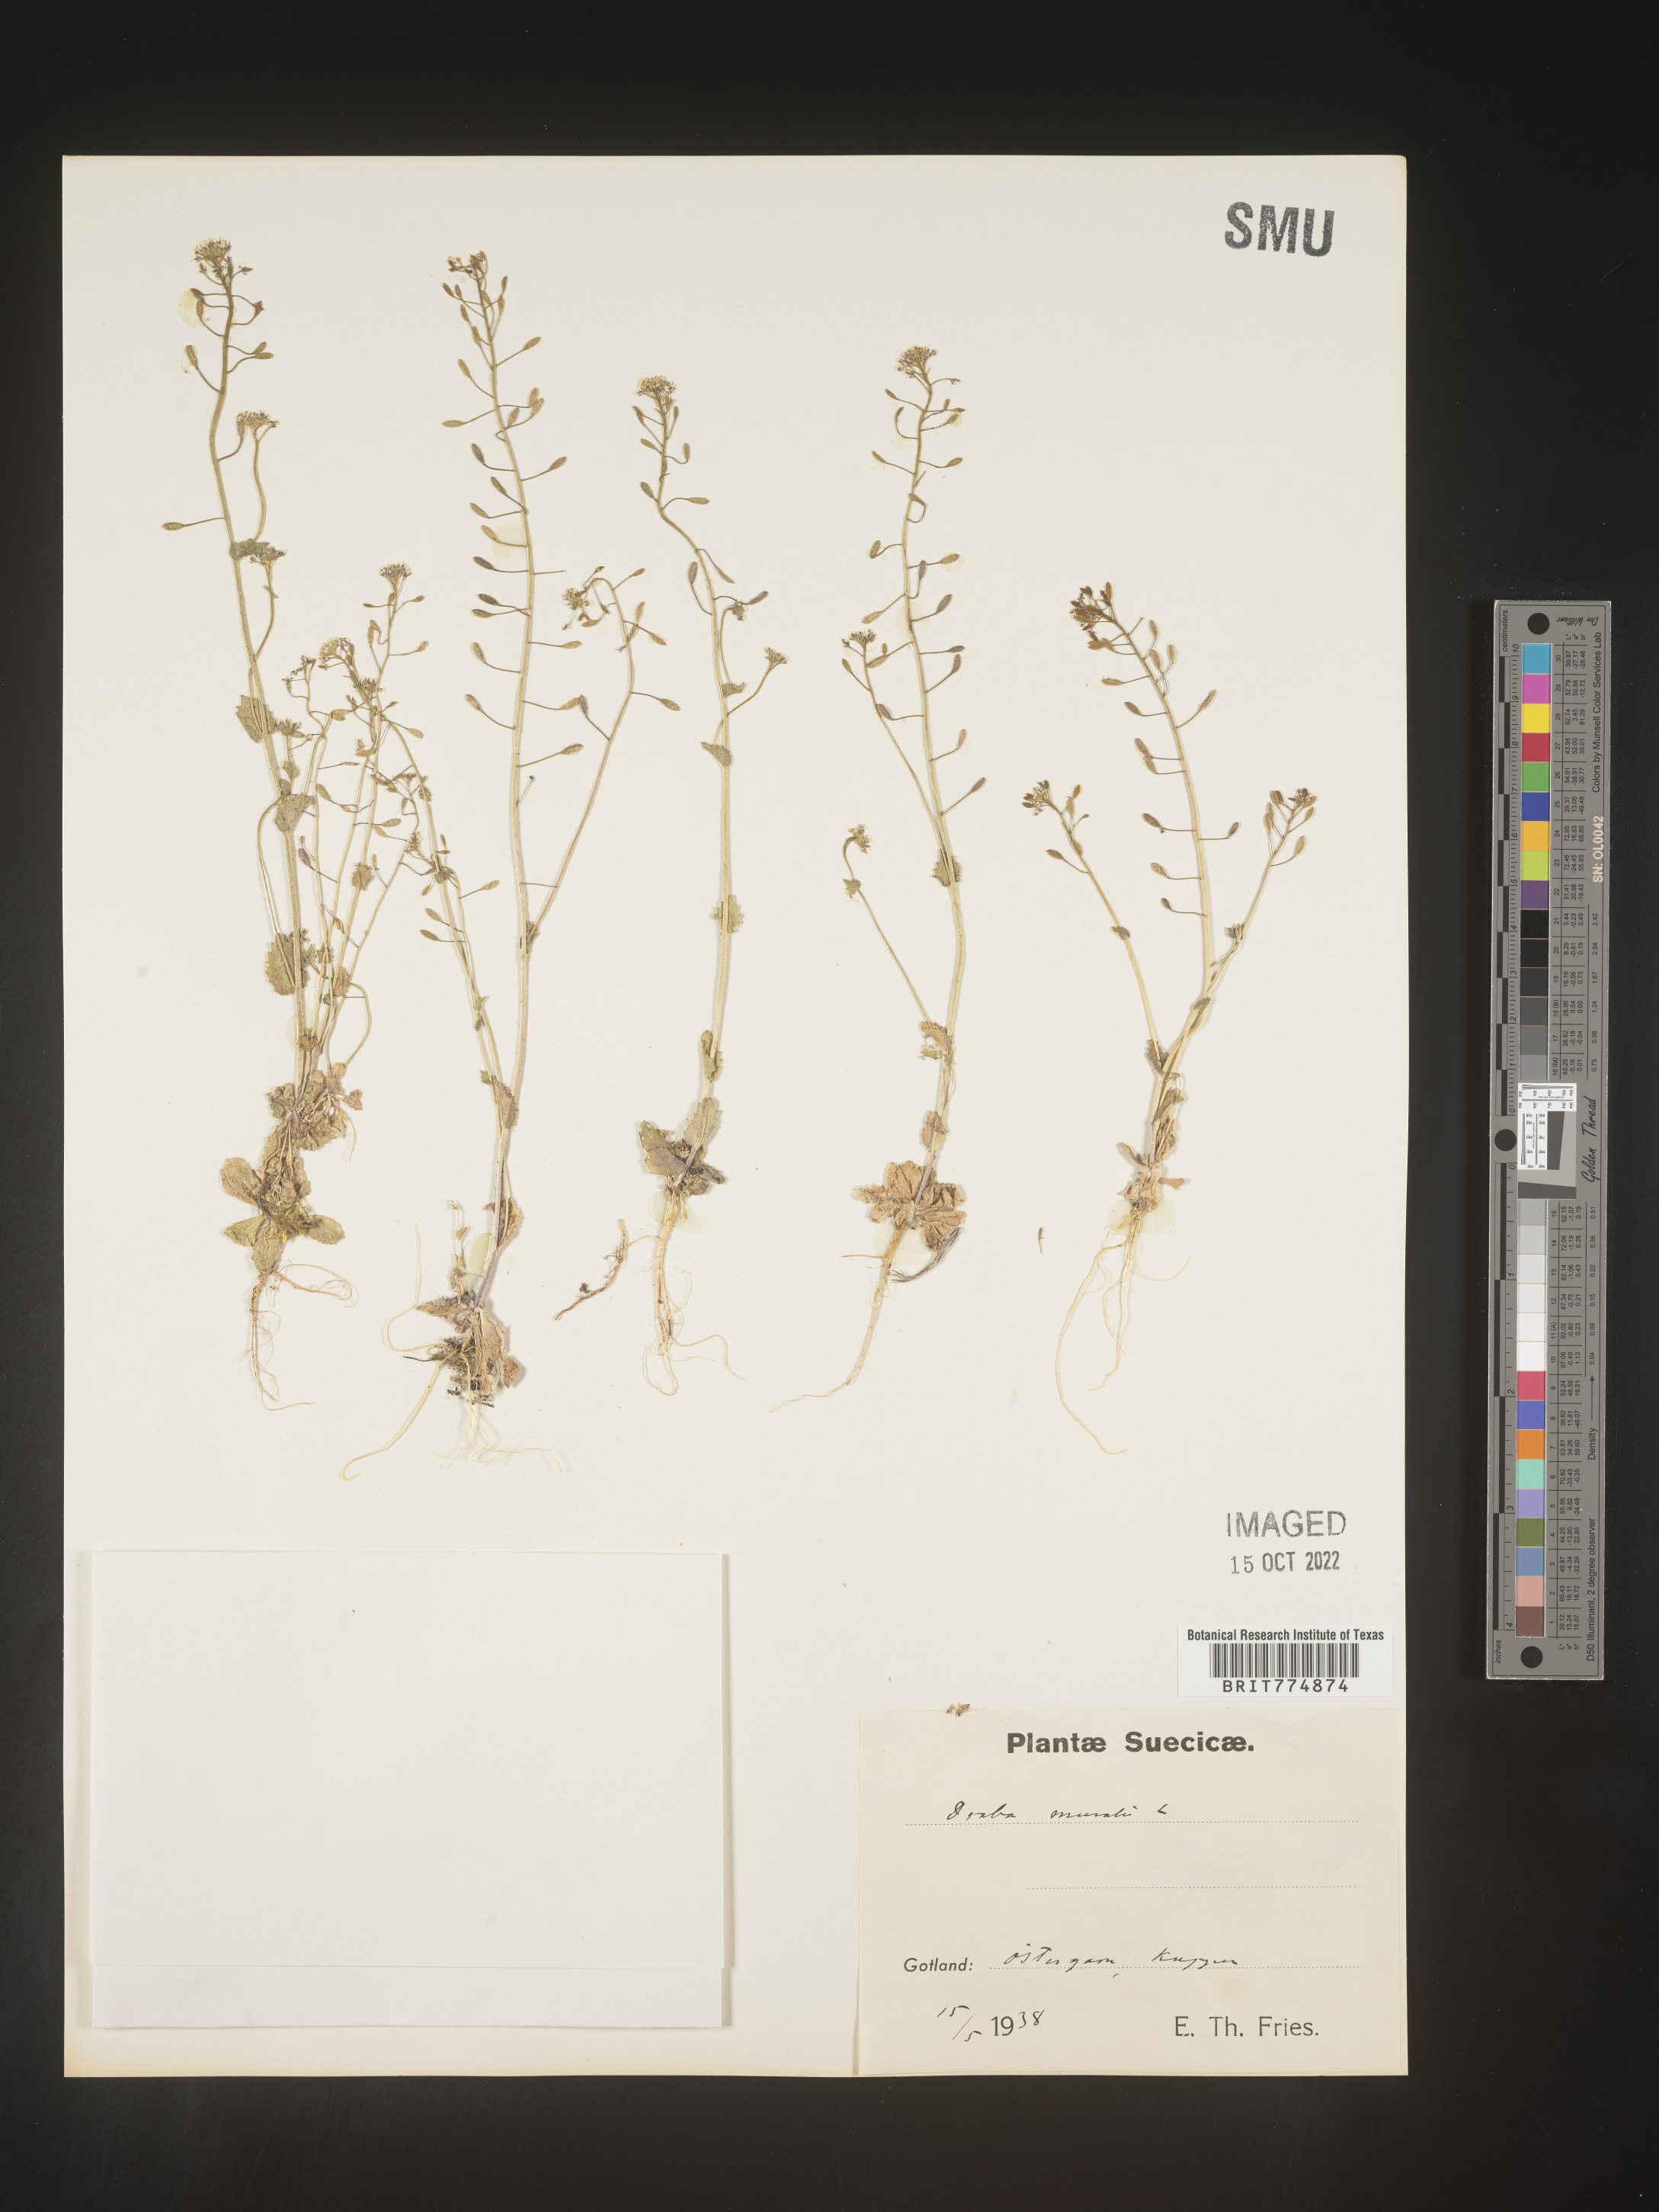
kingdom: Plantae
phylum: Tracheophyta
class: Magnoliopsida
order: Brassicales
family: Brassicaceae
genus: Draba
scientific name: Draba
